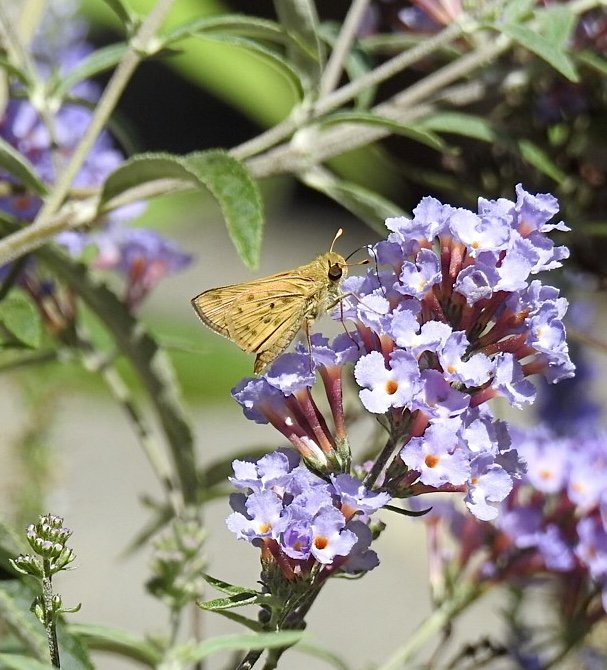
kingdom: Animalia
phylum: Arthropoda
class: Insecta
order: Lepidoptera
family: Hesperiidae
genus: Hylephila
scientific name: Hylephila phyleus
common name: Fiery Skipper
